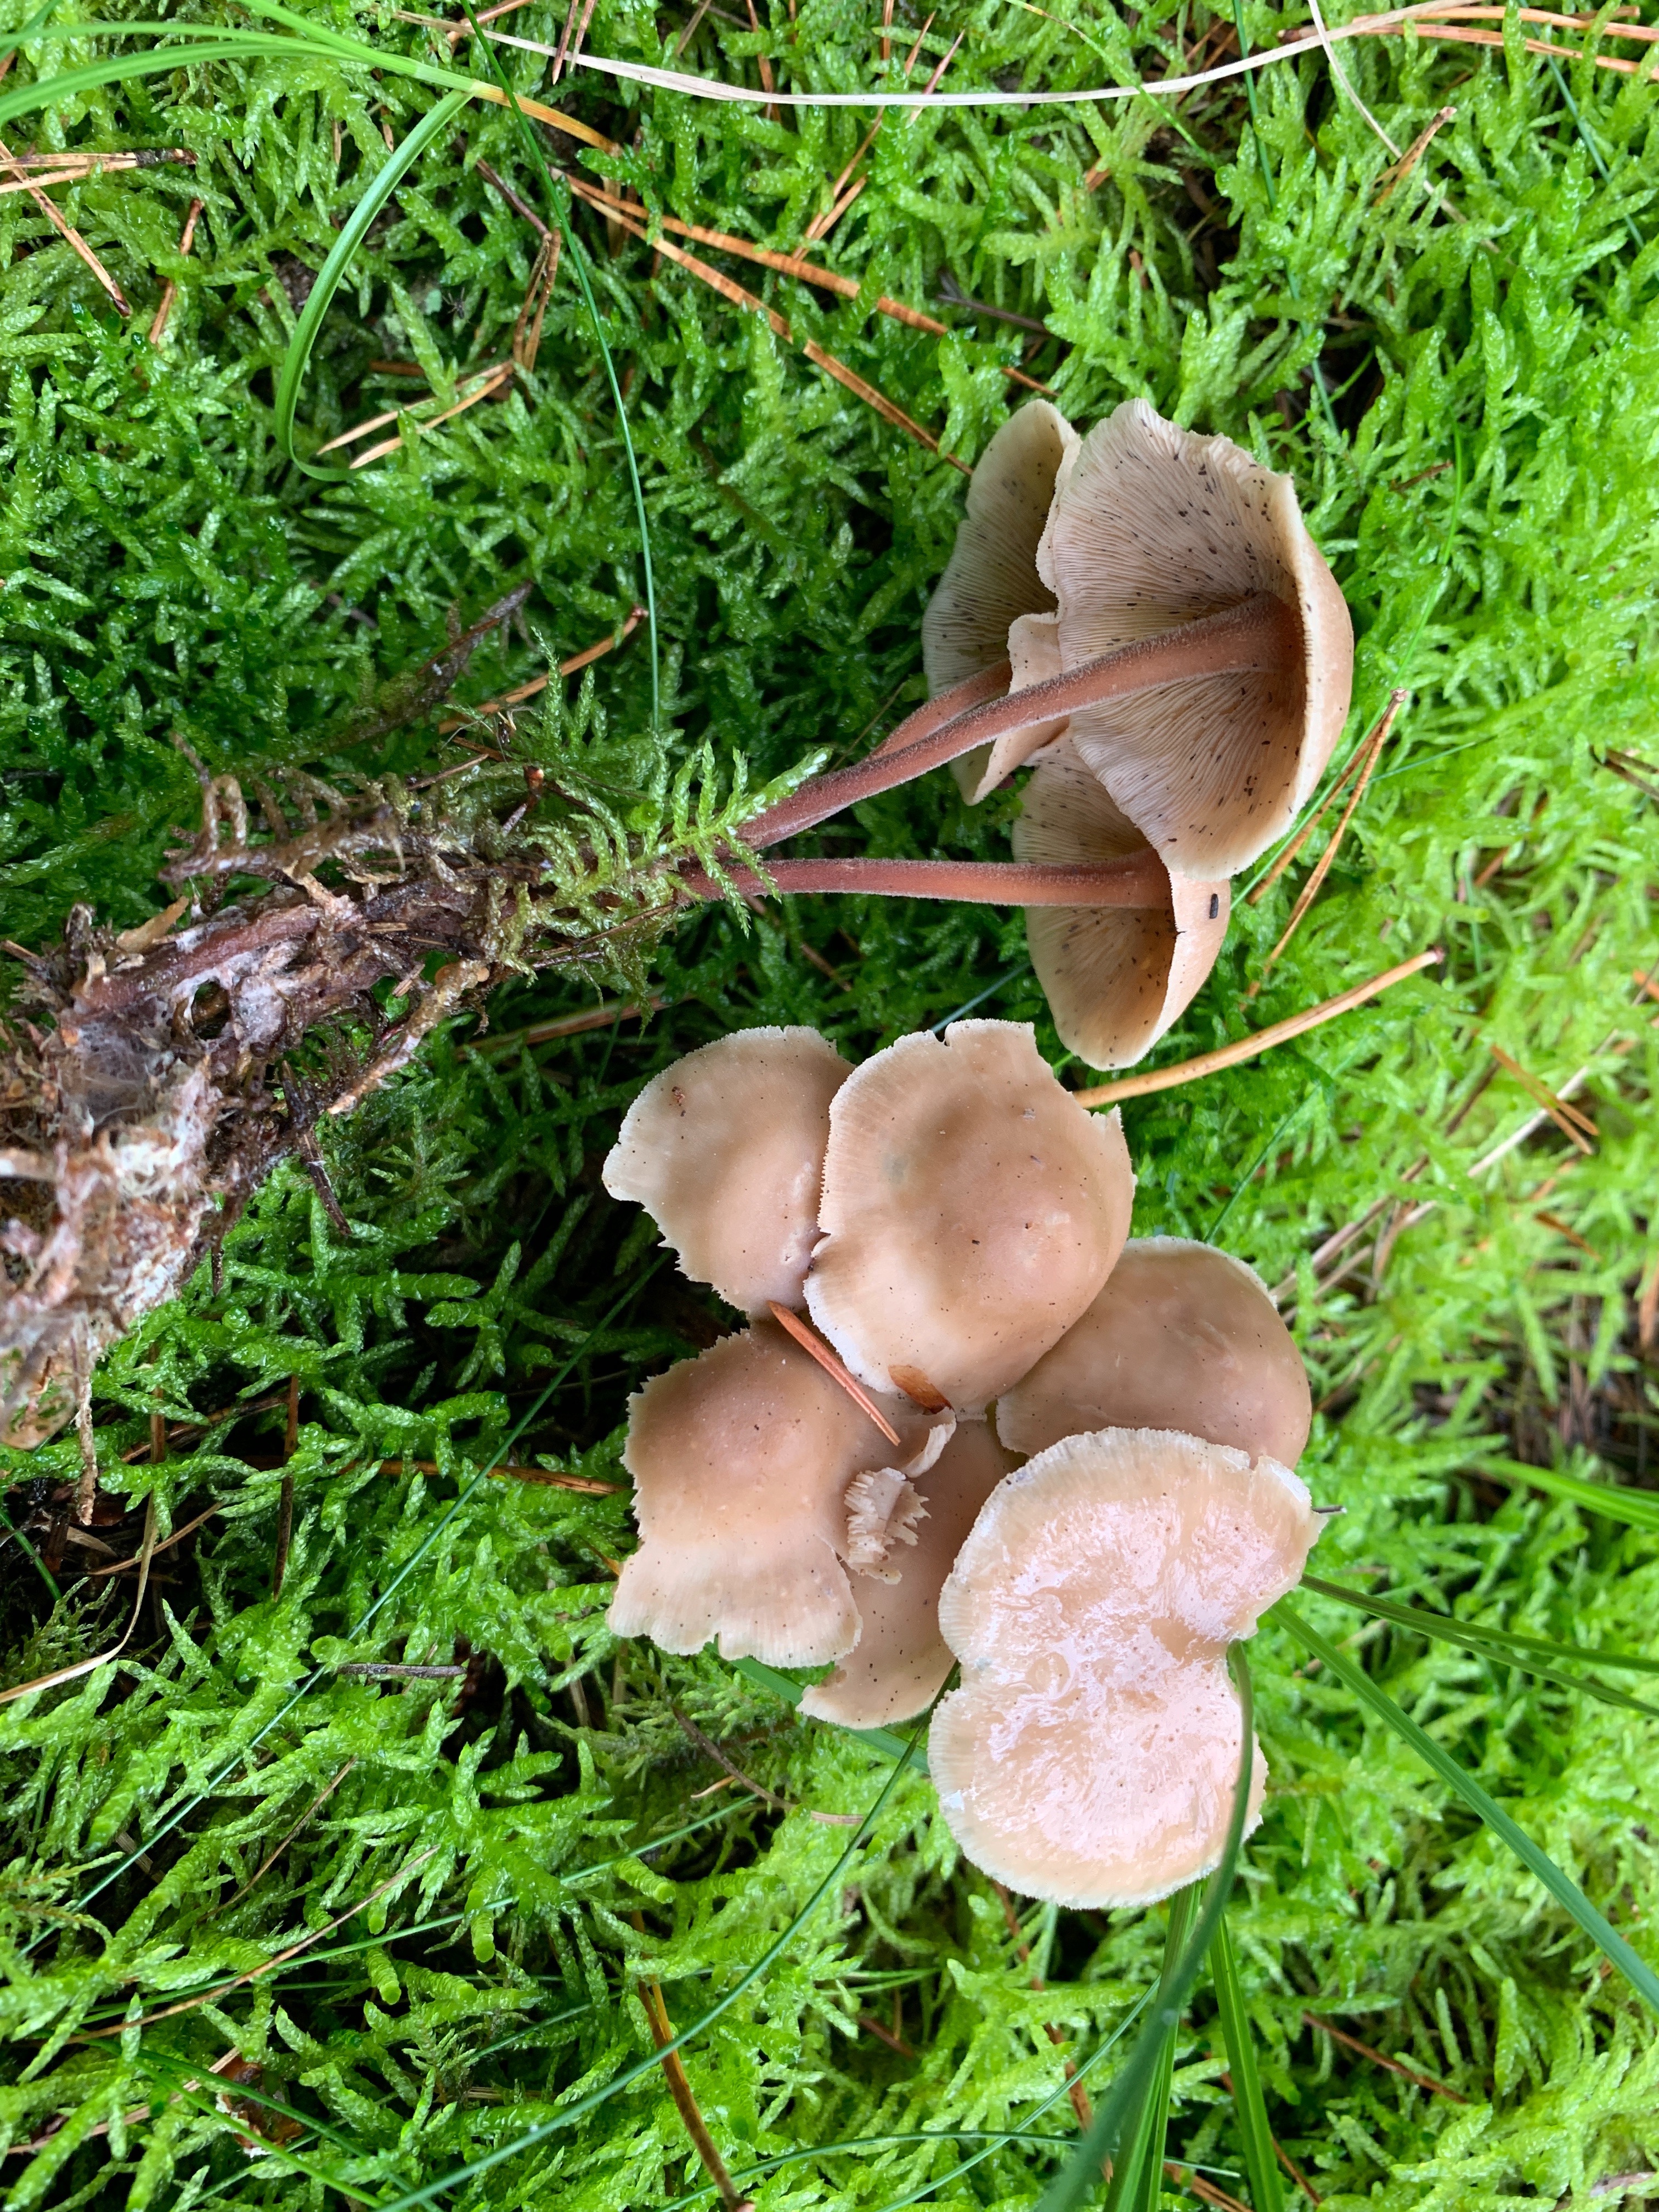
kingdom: Fungi
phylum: Basidiomycota
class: Agaricomycetes
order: Agaricales
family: Omphalotaceae
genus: Collybiopsis
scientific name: Collybiopsis confluens
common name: knippe-fladhat
